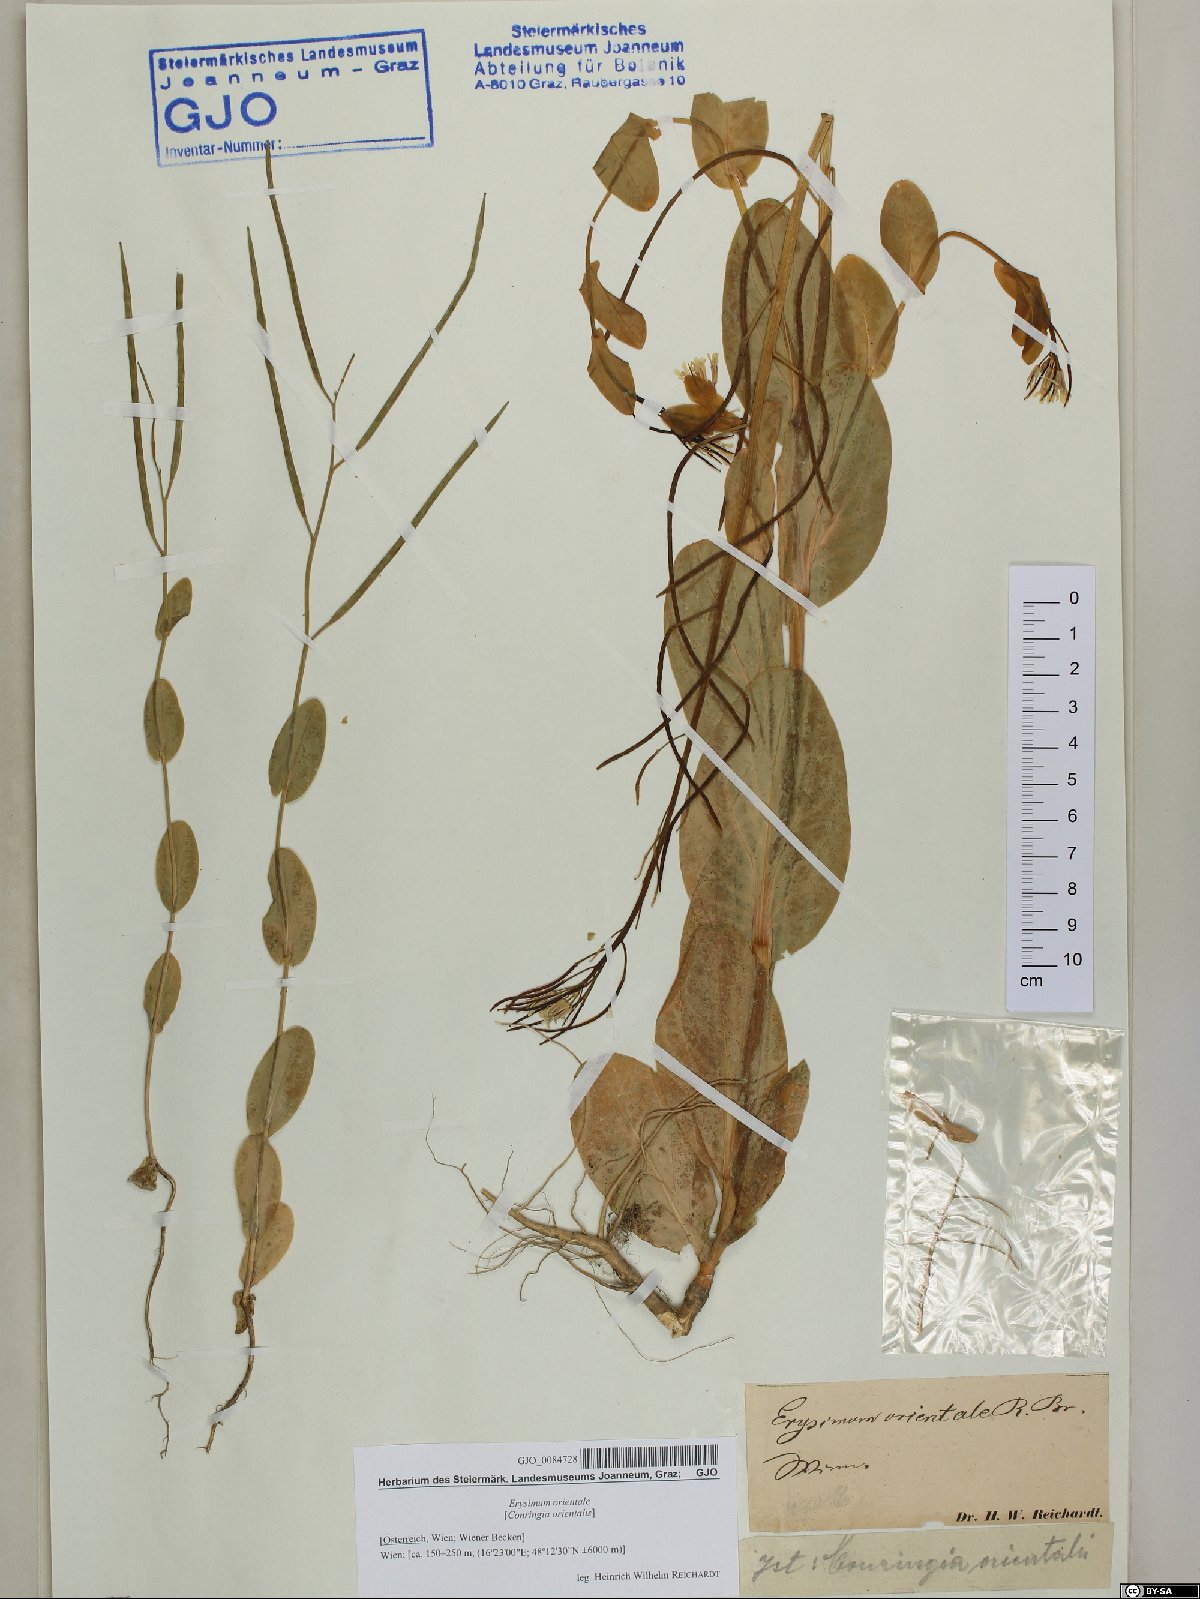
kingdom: Plantae
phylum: Tracheophyta
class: Magnoliopsida
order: Brassicales
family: Brassicaceae
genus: Conringia
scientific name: Conringia orientalis
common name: Hare's ear mustard
